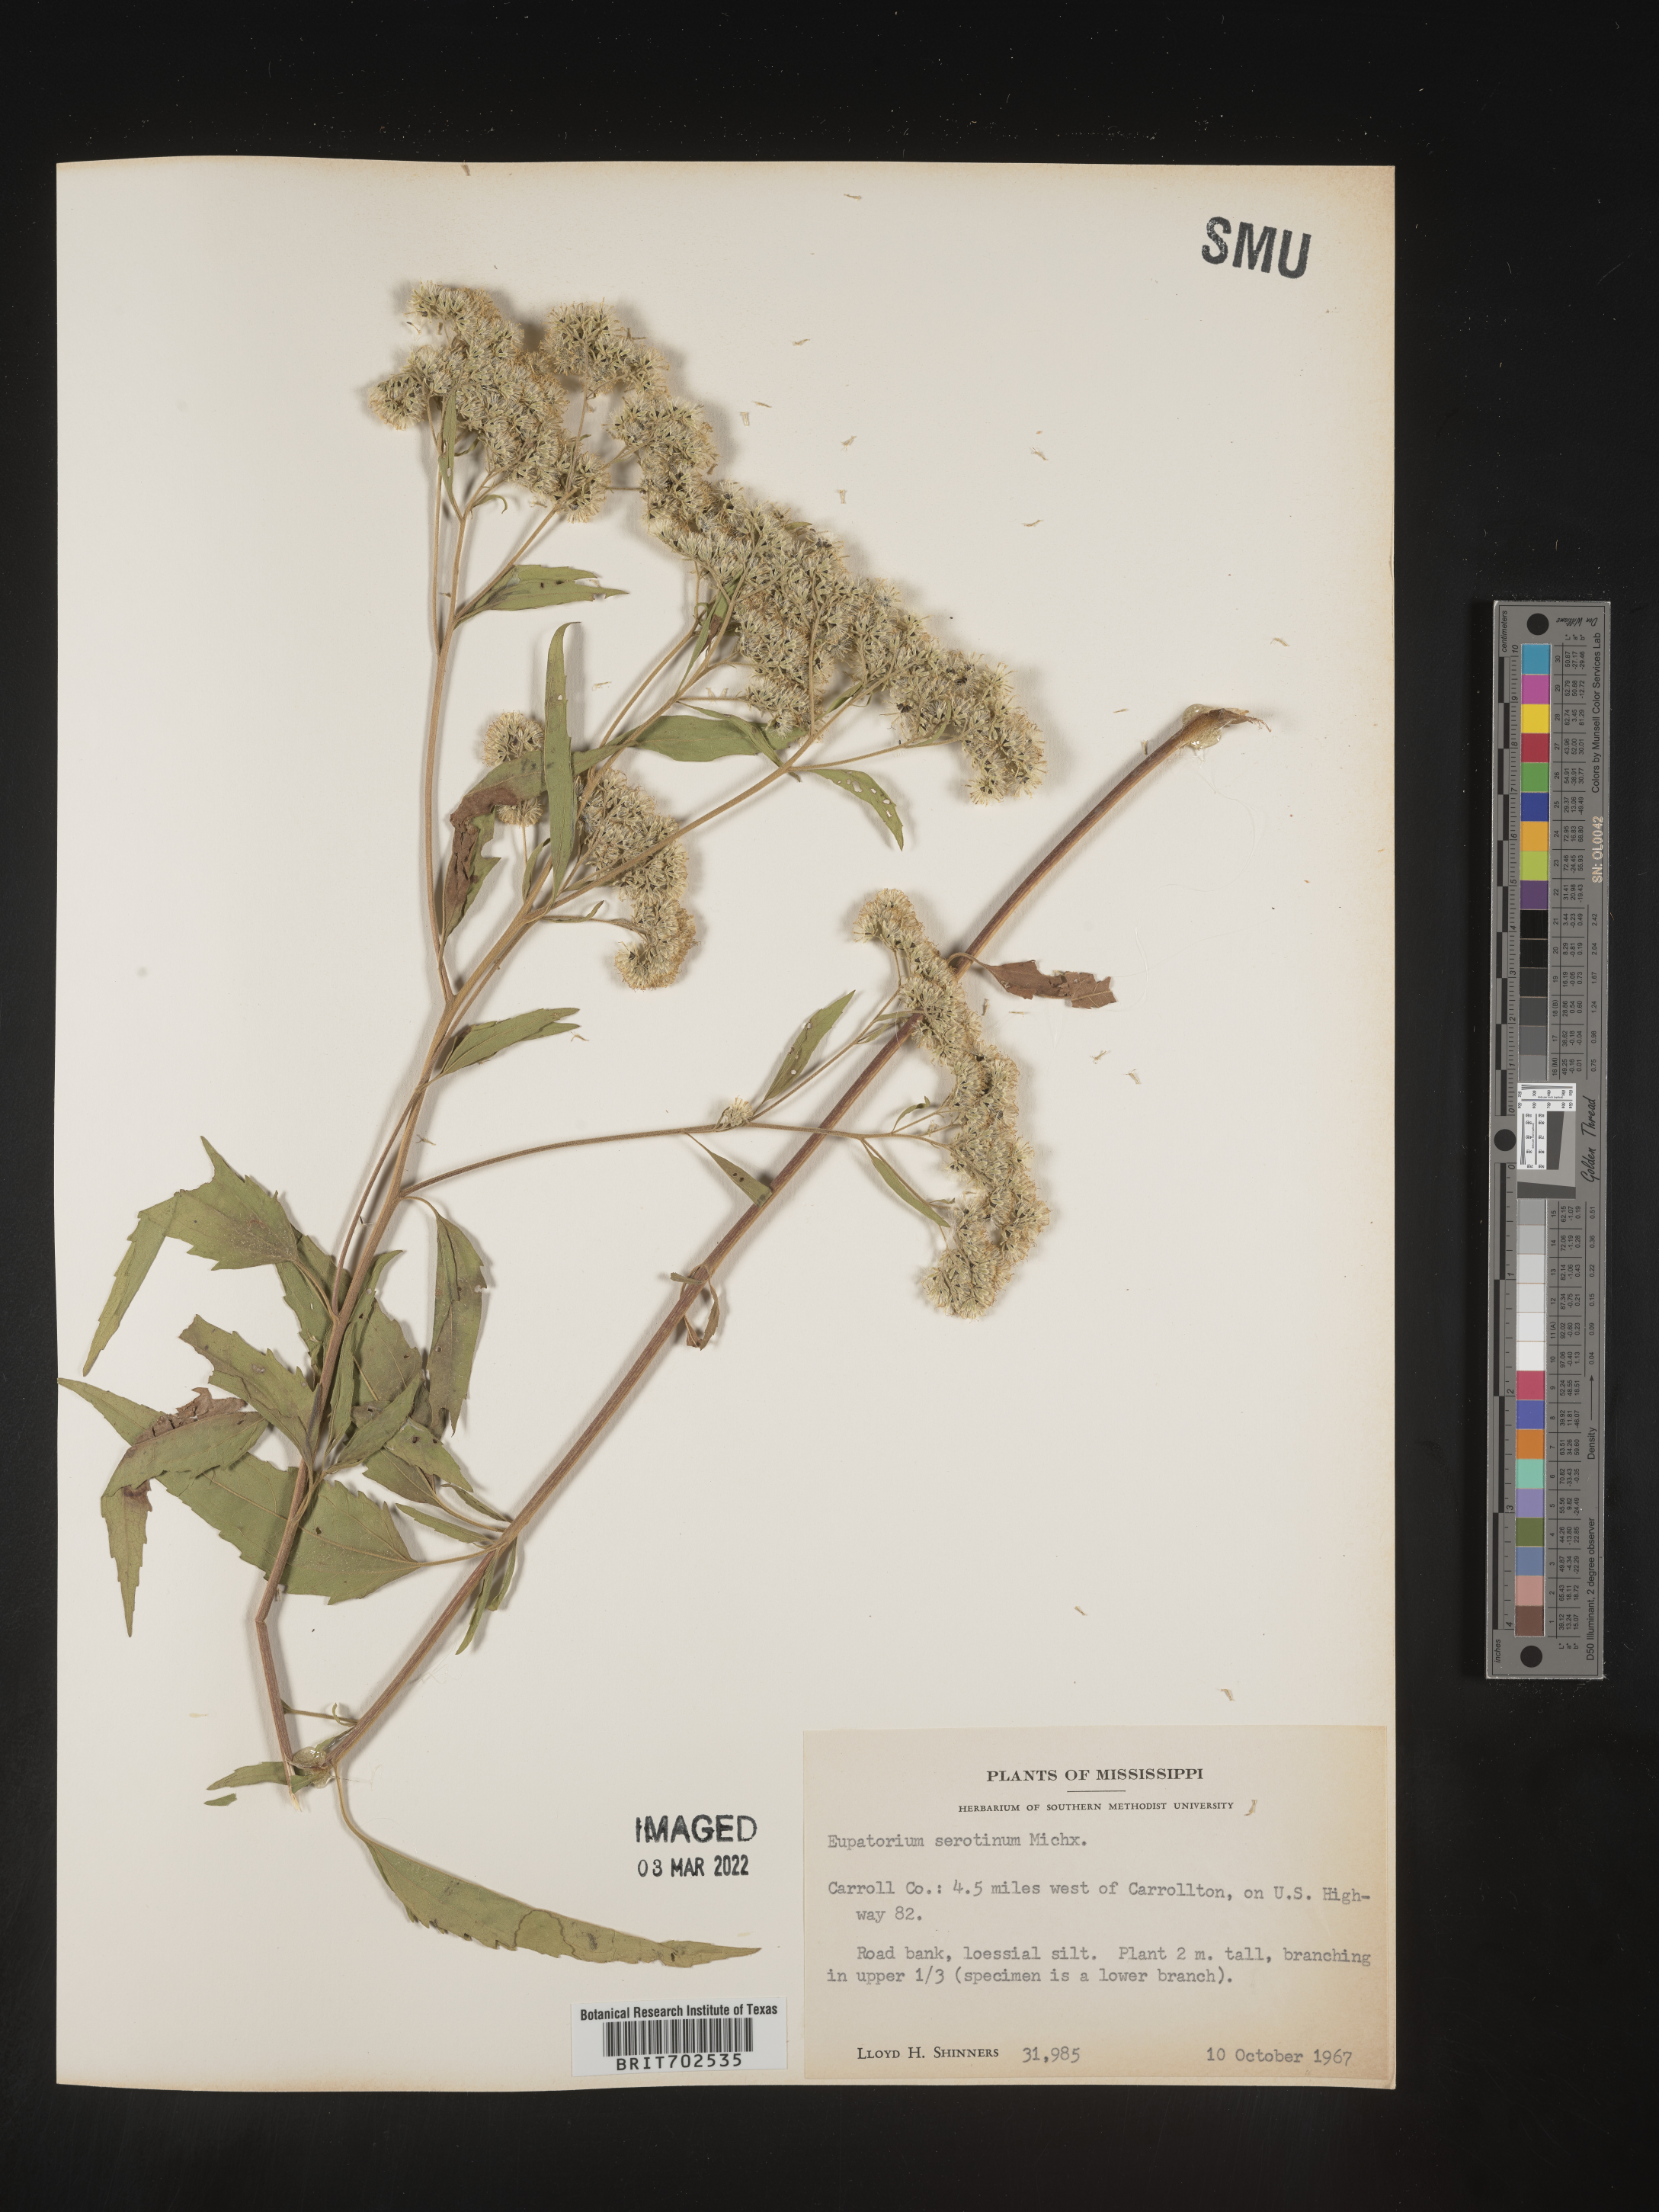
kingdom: Plantae
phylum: Tracheophyta
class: Magnoliopsida
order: Asterales
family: Asteraceae
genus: Eupatorium
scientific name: Eupatorium serotinum
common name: Late boneset
